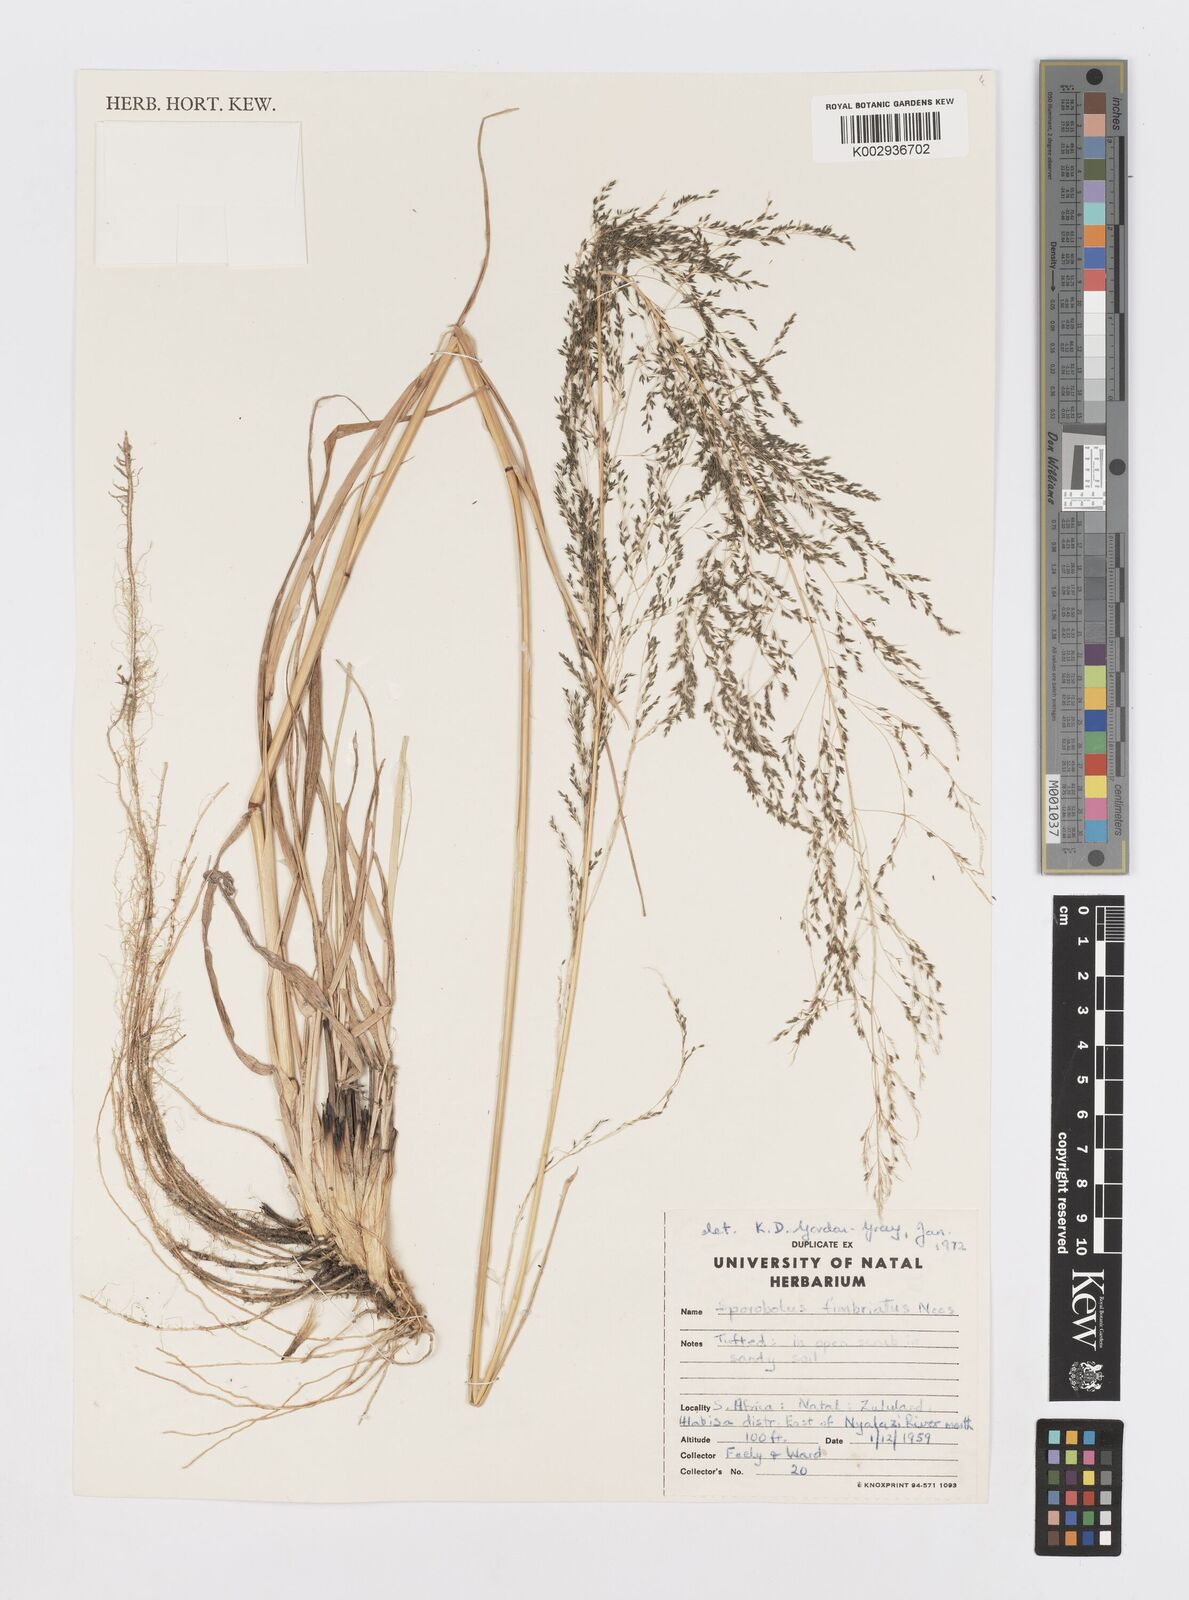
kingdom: Plantae
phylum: Tracheophyta
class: Liliopsida
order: Poales
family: Poaceae
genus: Sporobolus
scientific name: Sporobolus fimbriatus
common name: Fringed dropseed
